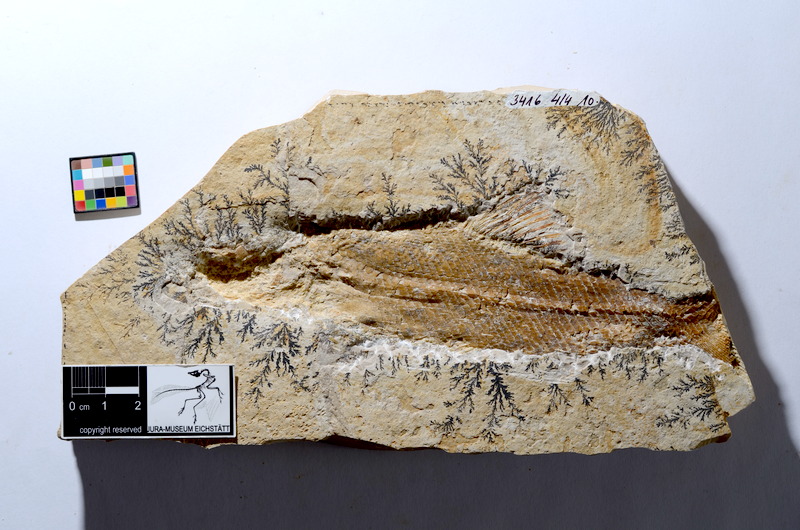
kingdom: Animalia
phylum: Chordata
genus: Altmuehlfuro
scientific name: Altmuehlfuro boomerang
